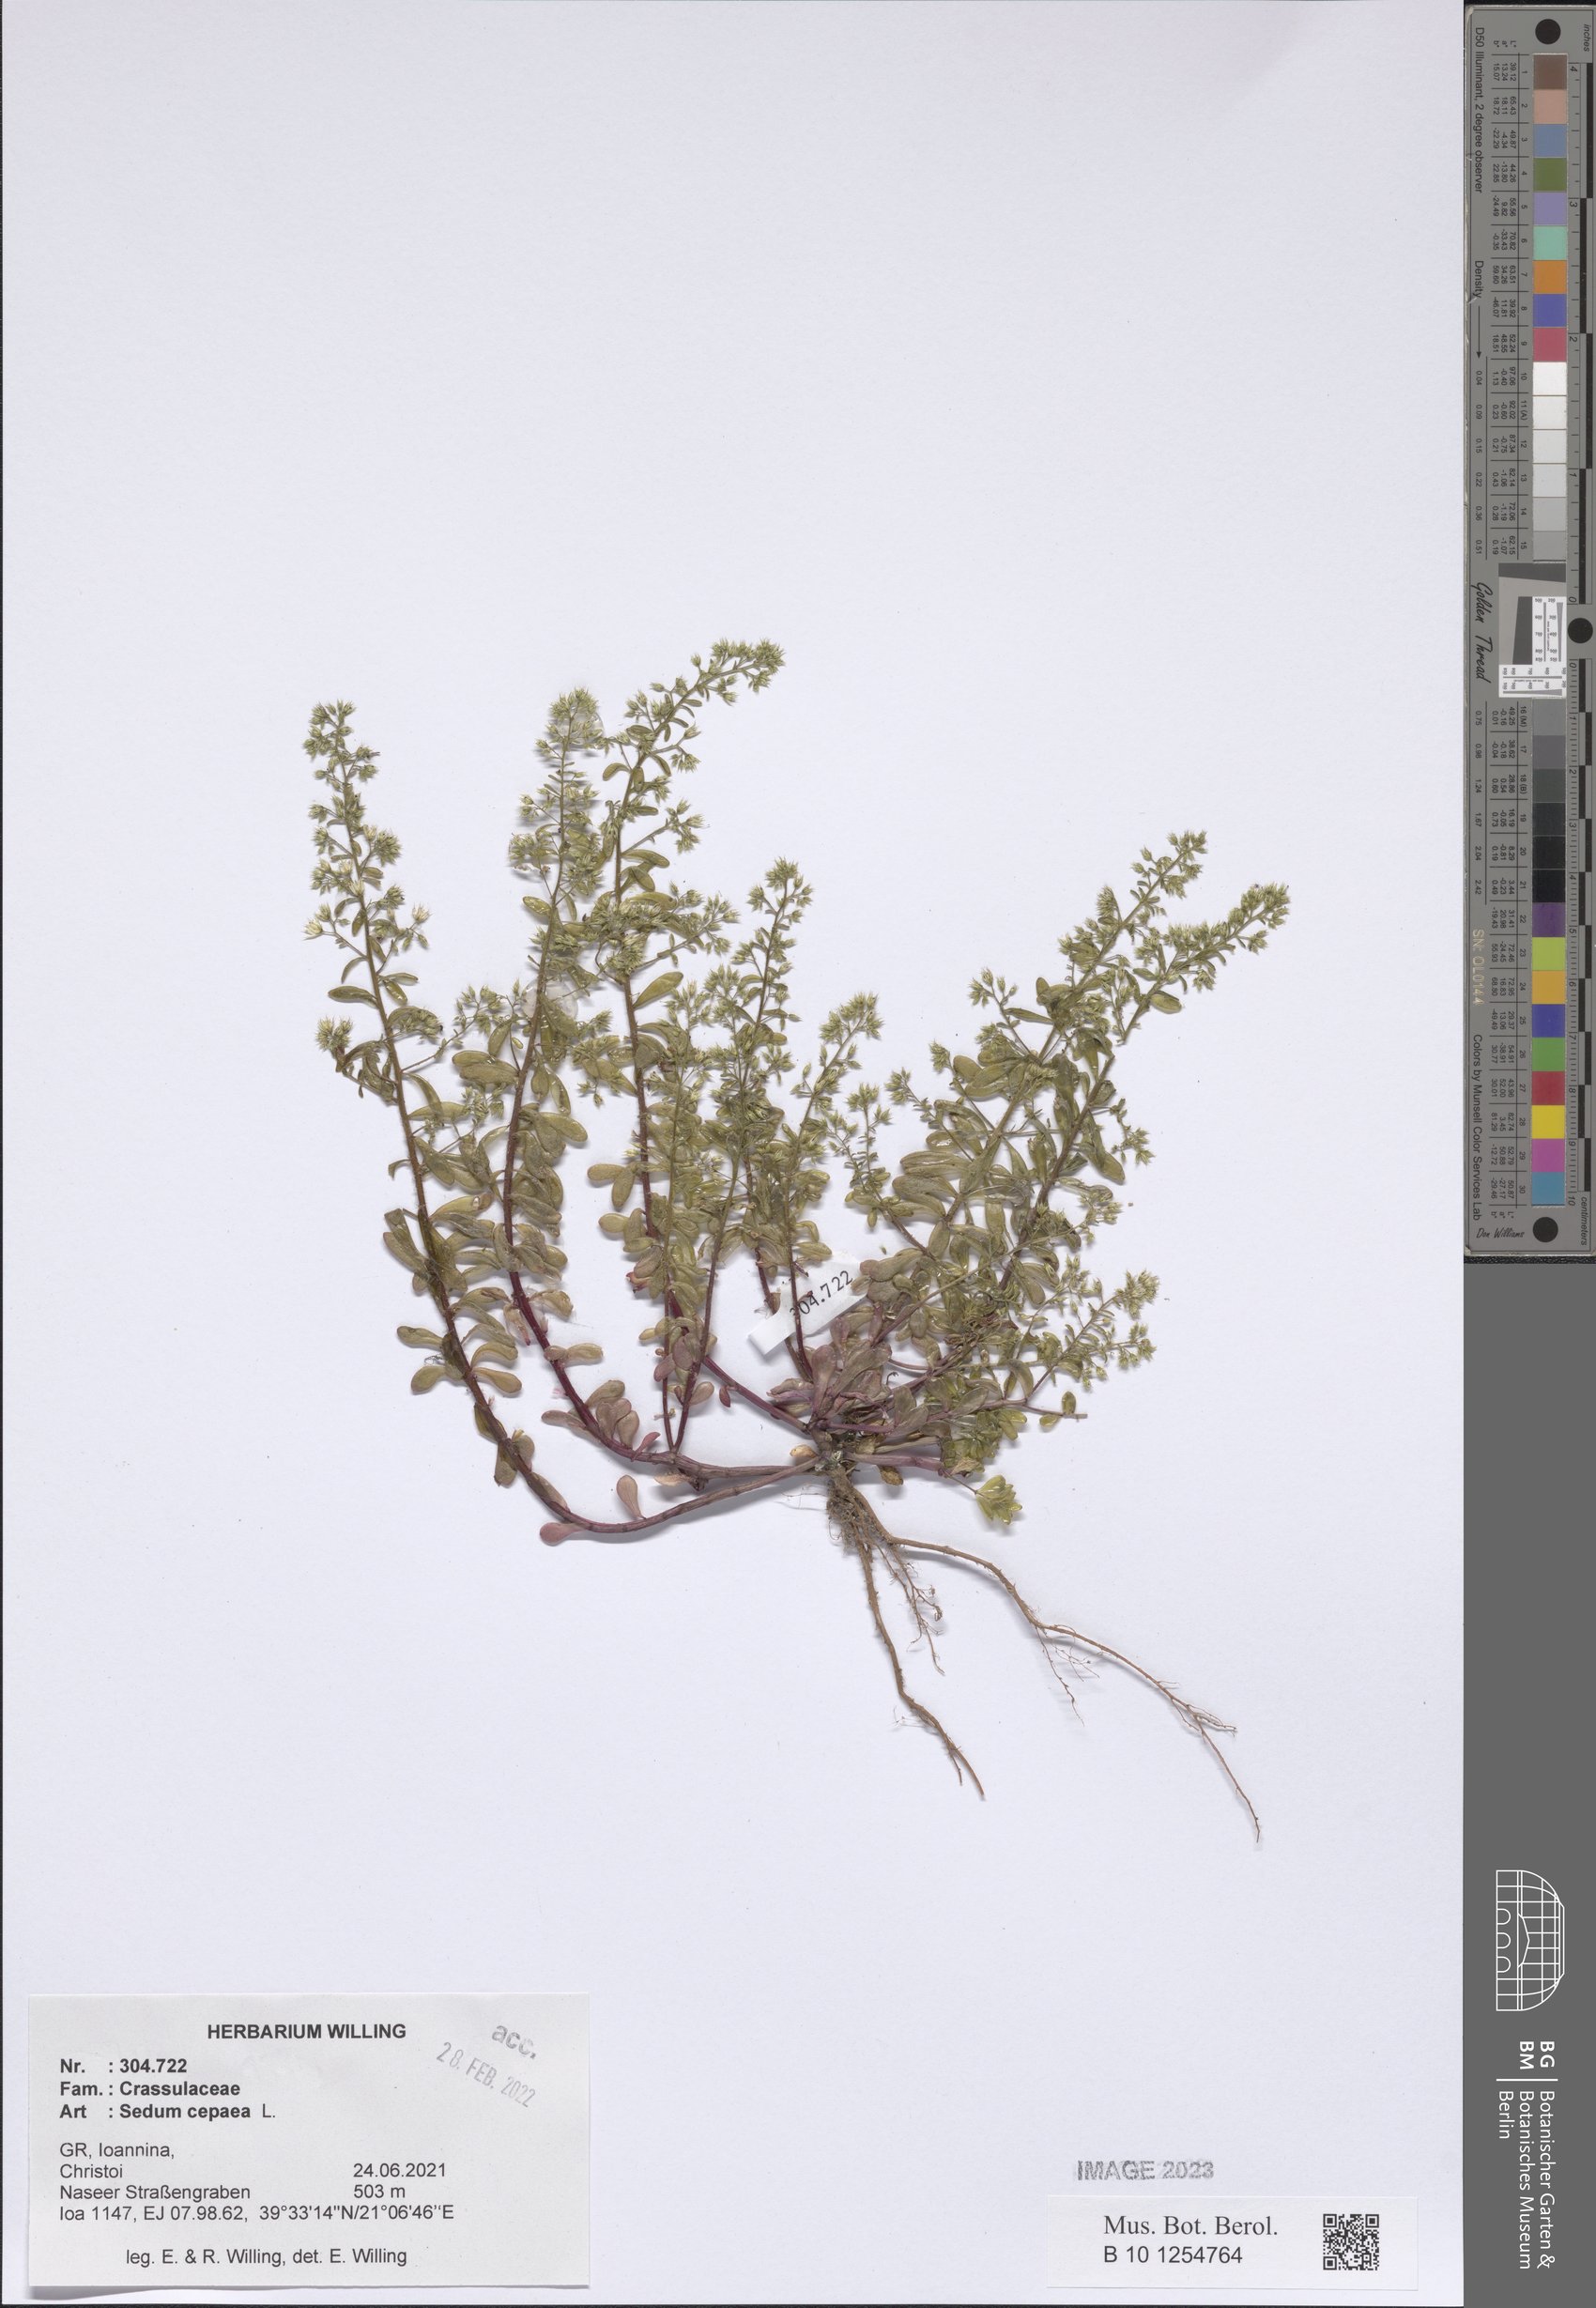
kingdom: Plantae
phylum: Tracheophyta
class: Magnoliopsida
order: Saxifragales
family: Crassulaceae
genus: Sedum
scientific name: Sedum cepaea
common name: Pink stonecrop
